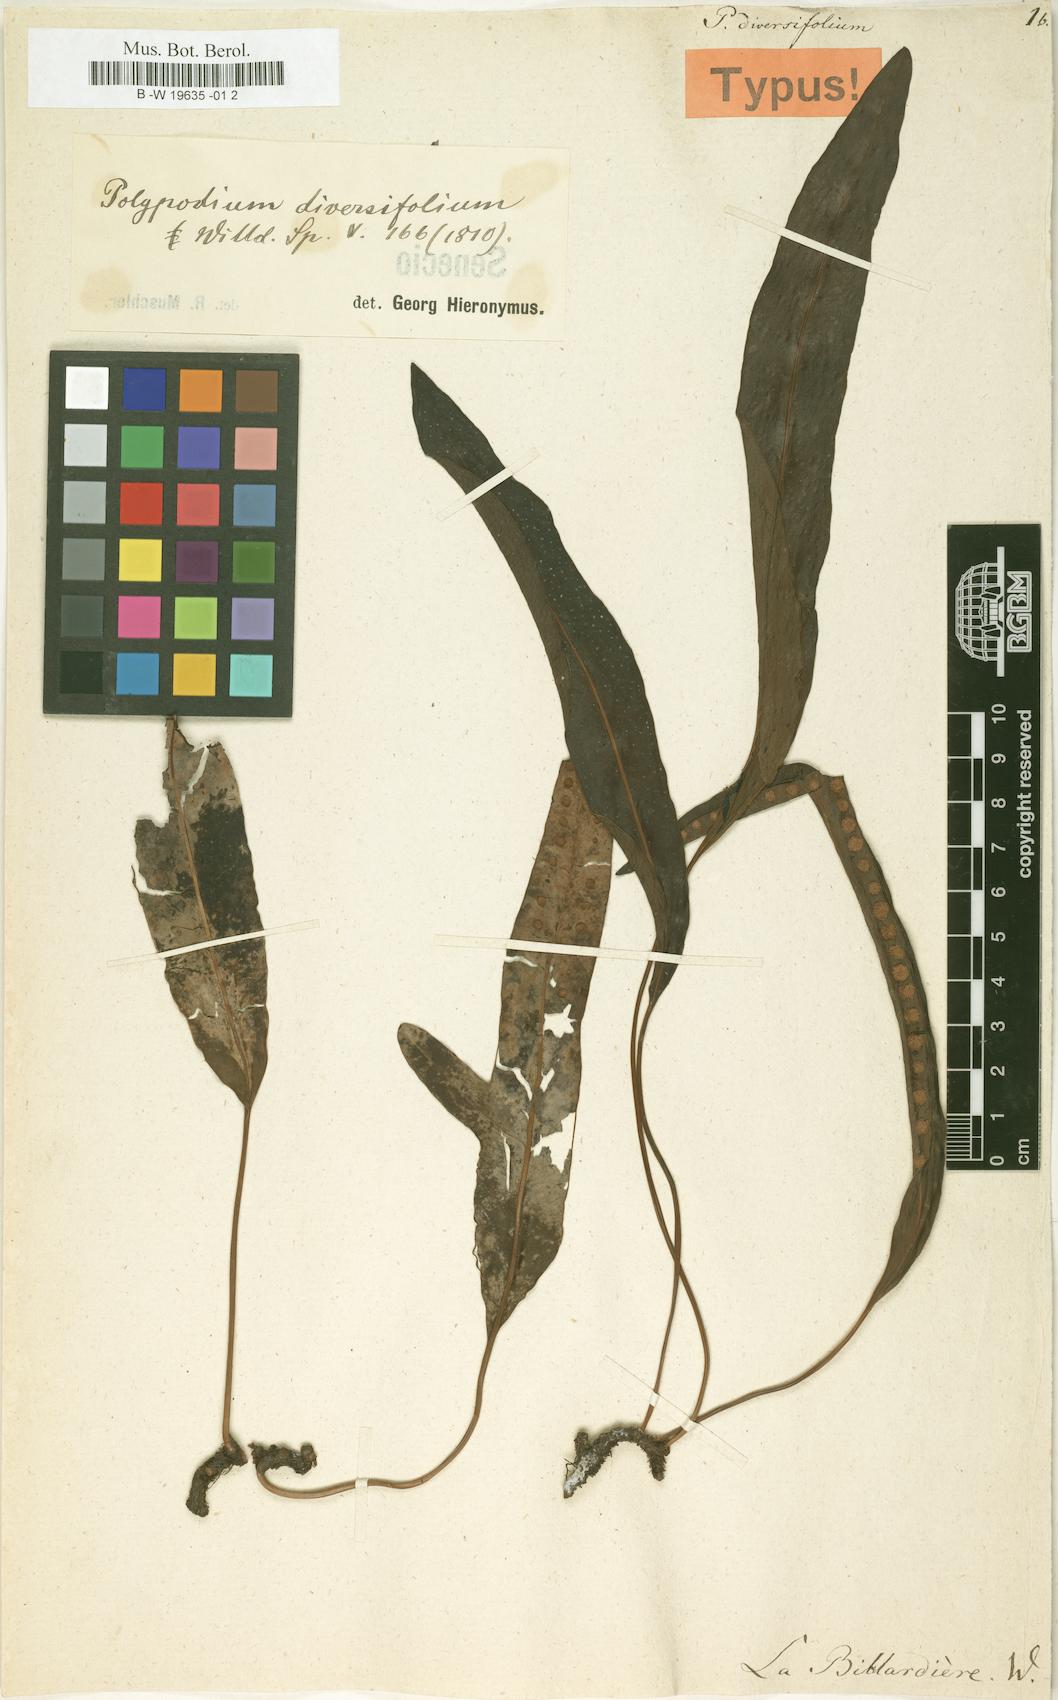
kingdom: Plantae
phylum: Tracheophyta
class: Polypodiopsida
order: Polypodiales
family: Polypodiaceae
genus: Lecanopteris
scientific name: Lecanopteris pustulata
